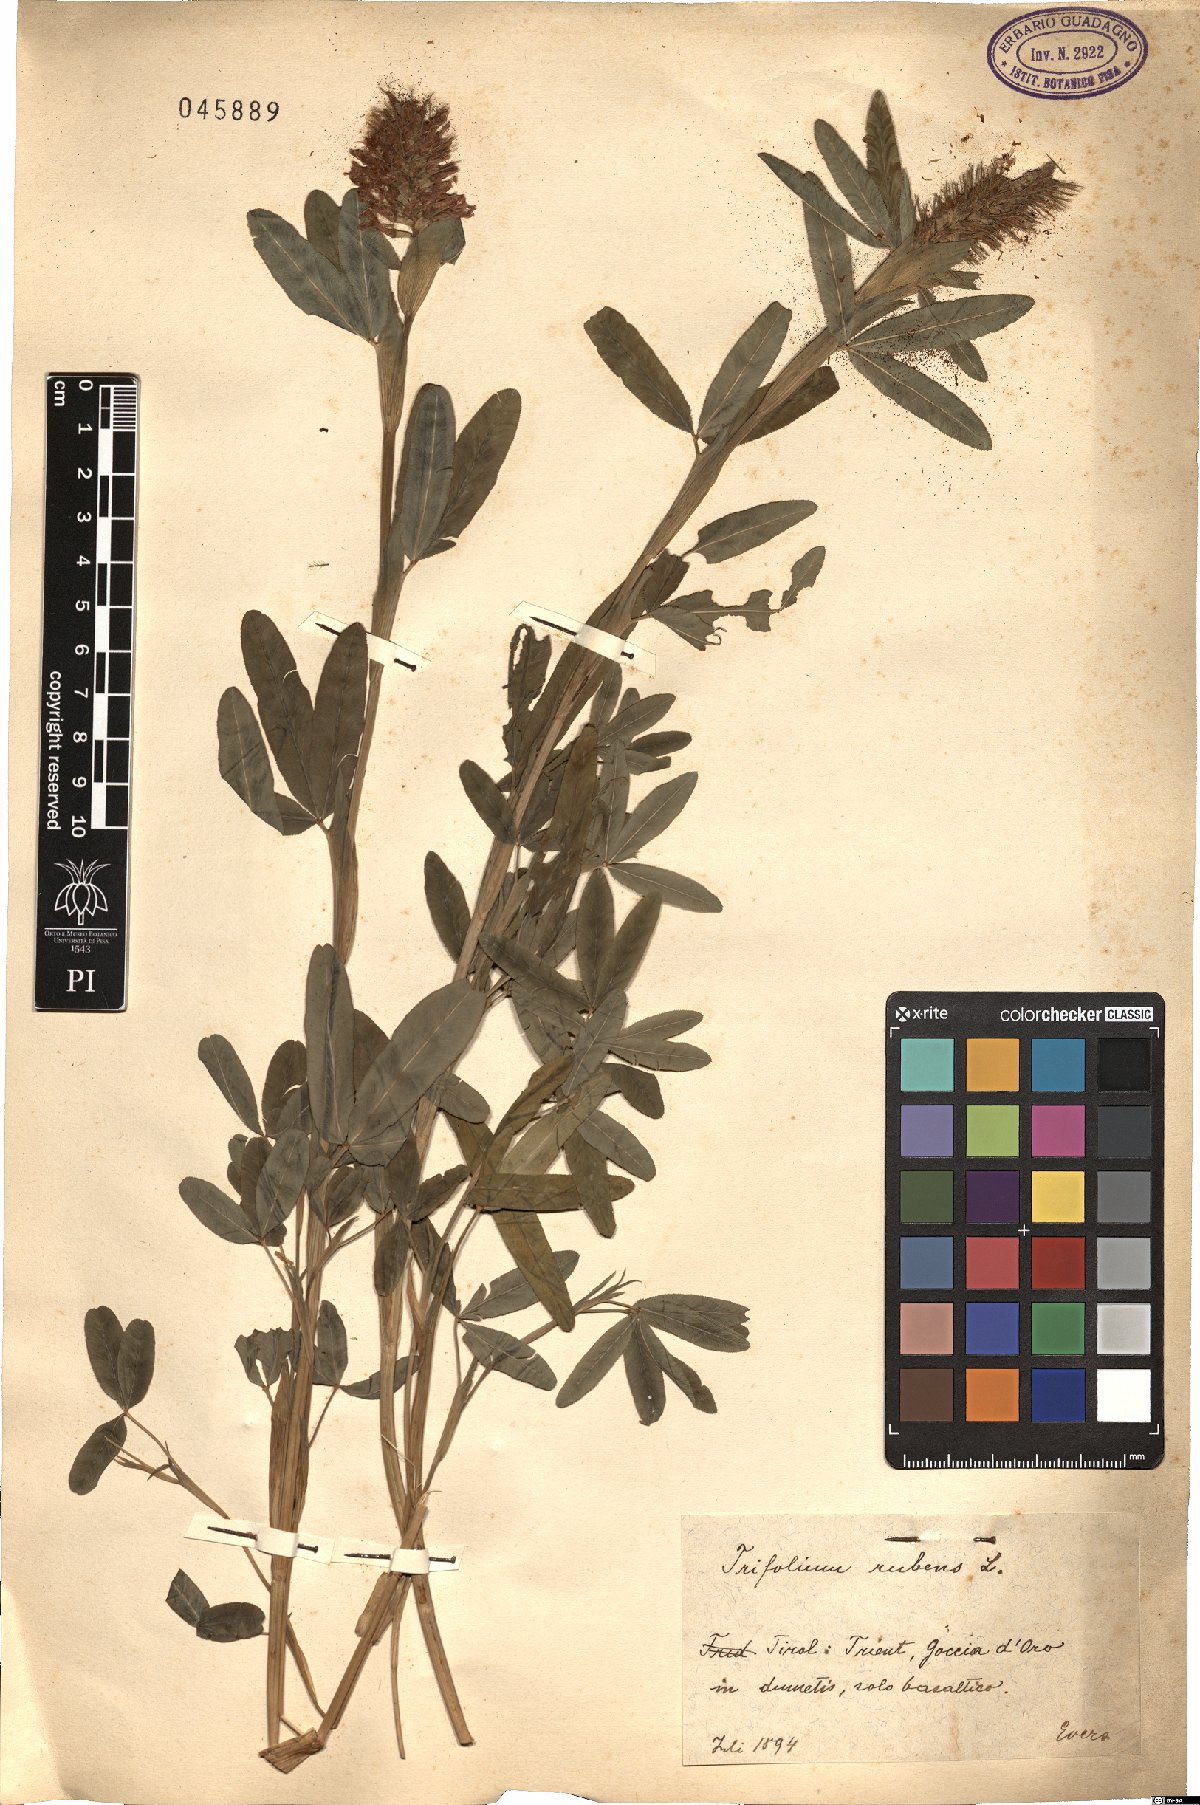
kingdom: Plantae
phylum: Tracheophyta
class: Magnoliopsida
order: Fabales
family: Fabaceae
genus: Trifolium
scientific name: Trifolium rubens
